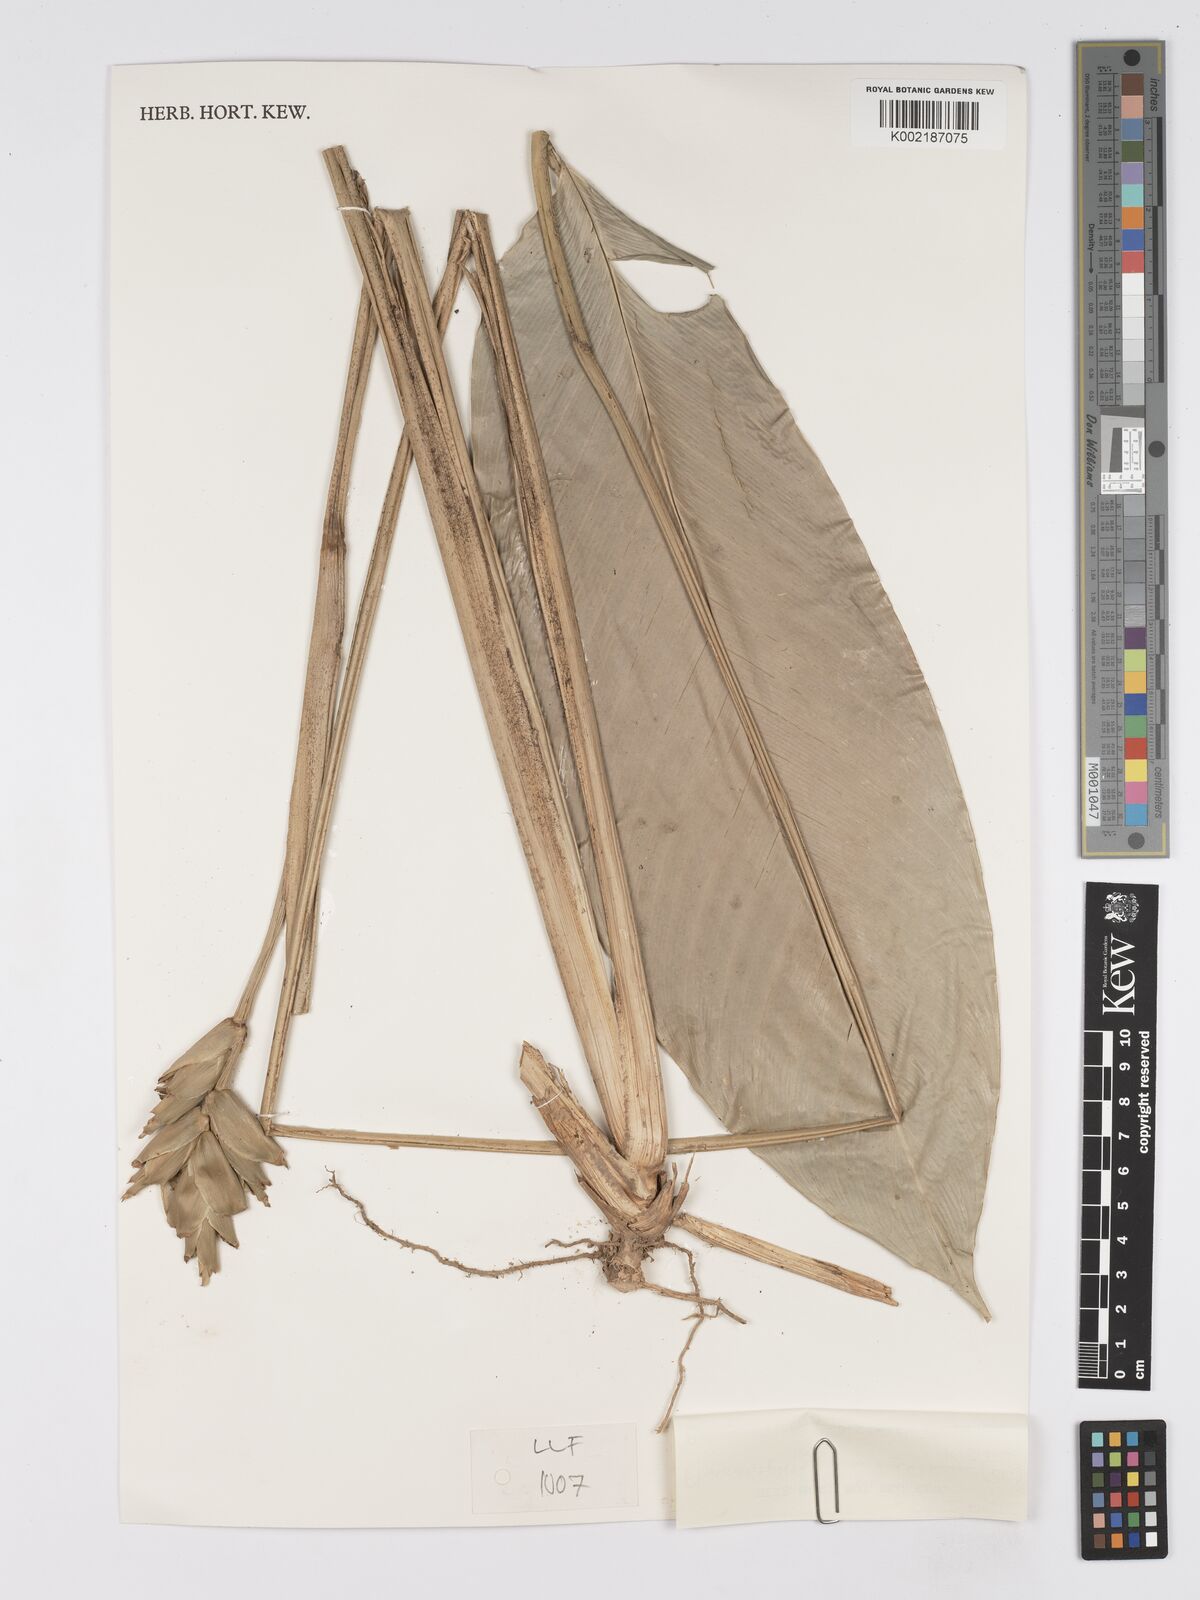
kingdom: Plantae
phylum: Tracheophyta
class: Liliopsida
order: Zingiberales
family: Marantaceae
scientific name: Marantaceae
